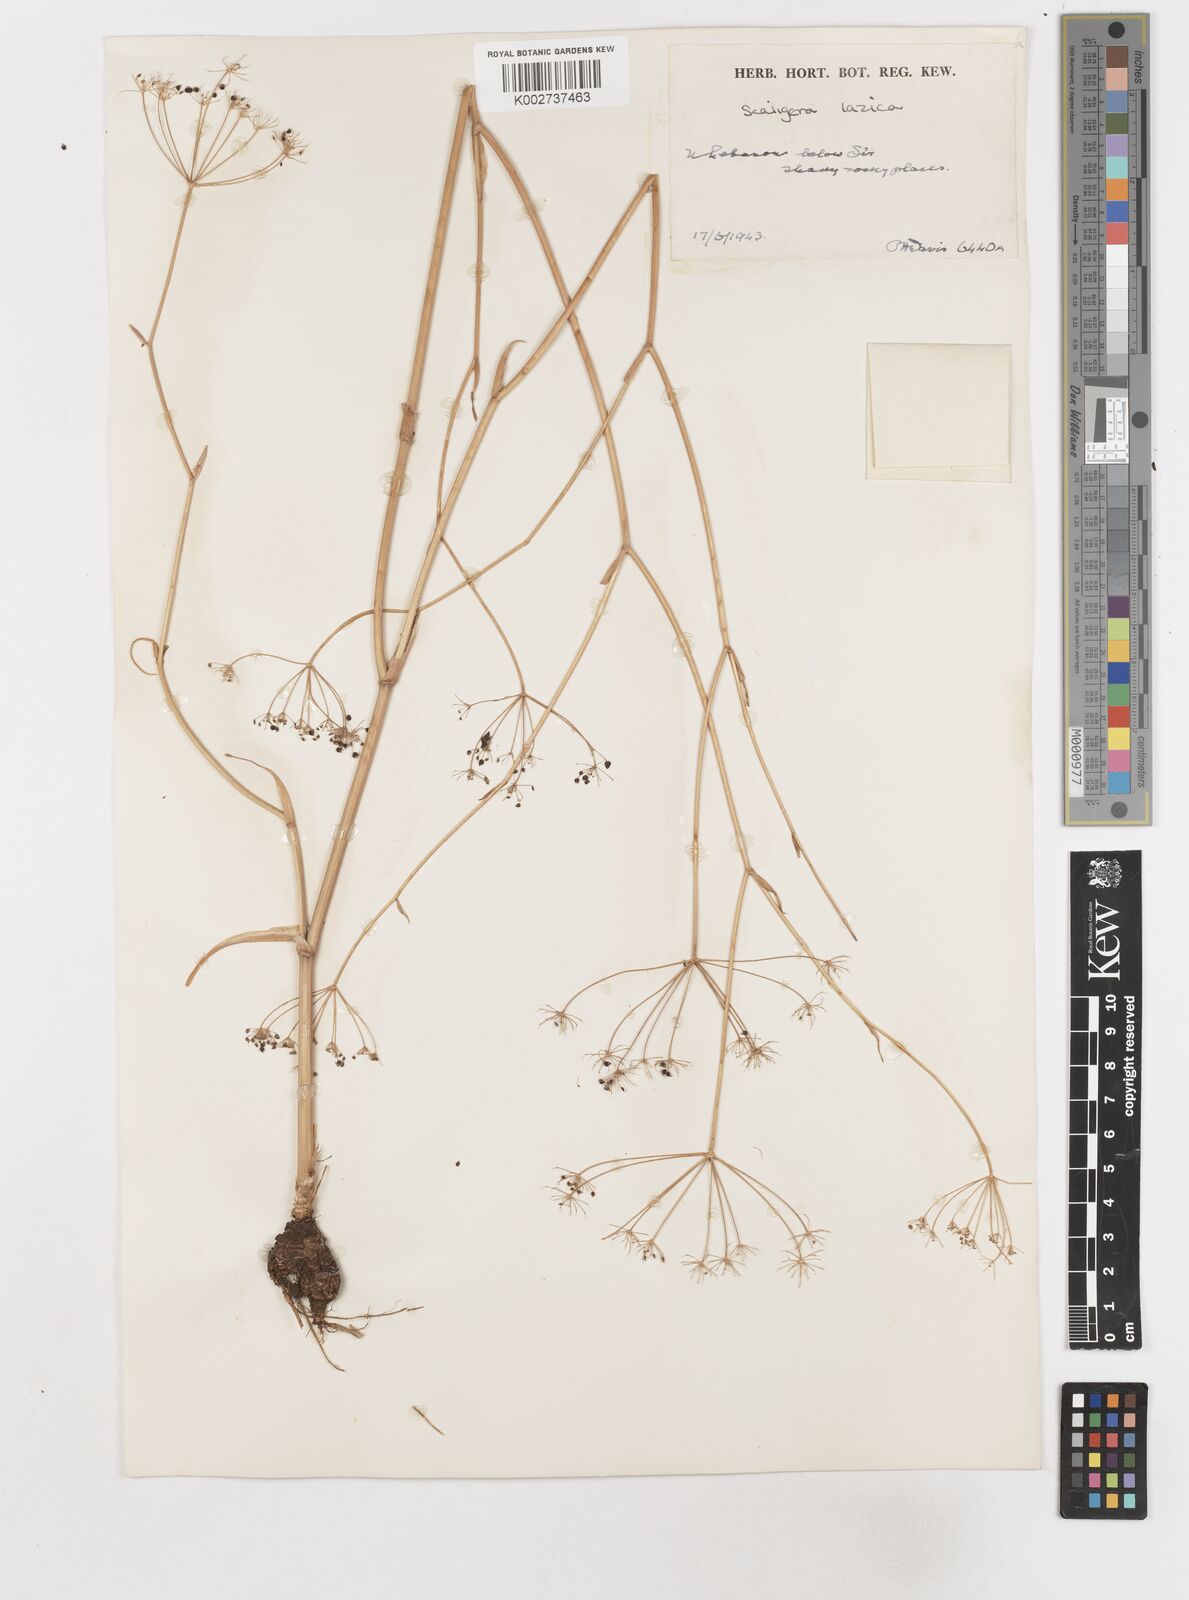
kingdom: Plantae
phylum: Tracheophyta
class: Magnoliopsida
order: Apiales
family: Apiaceae
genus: Scaligeria
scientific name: Scaligeria
